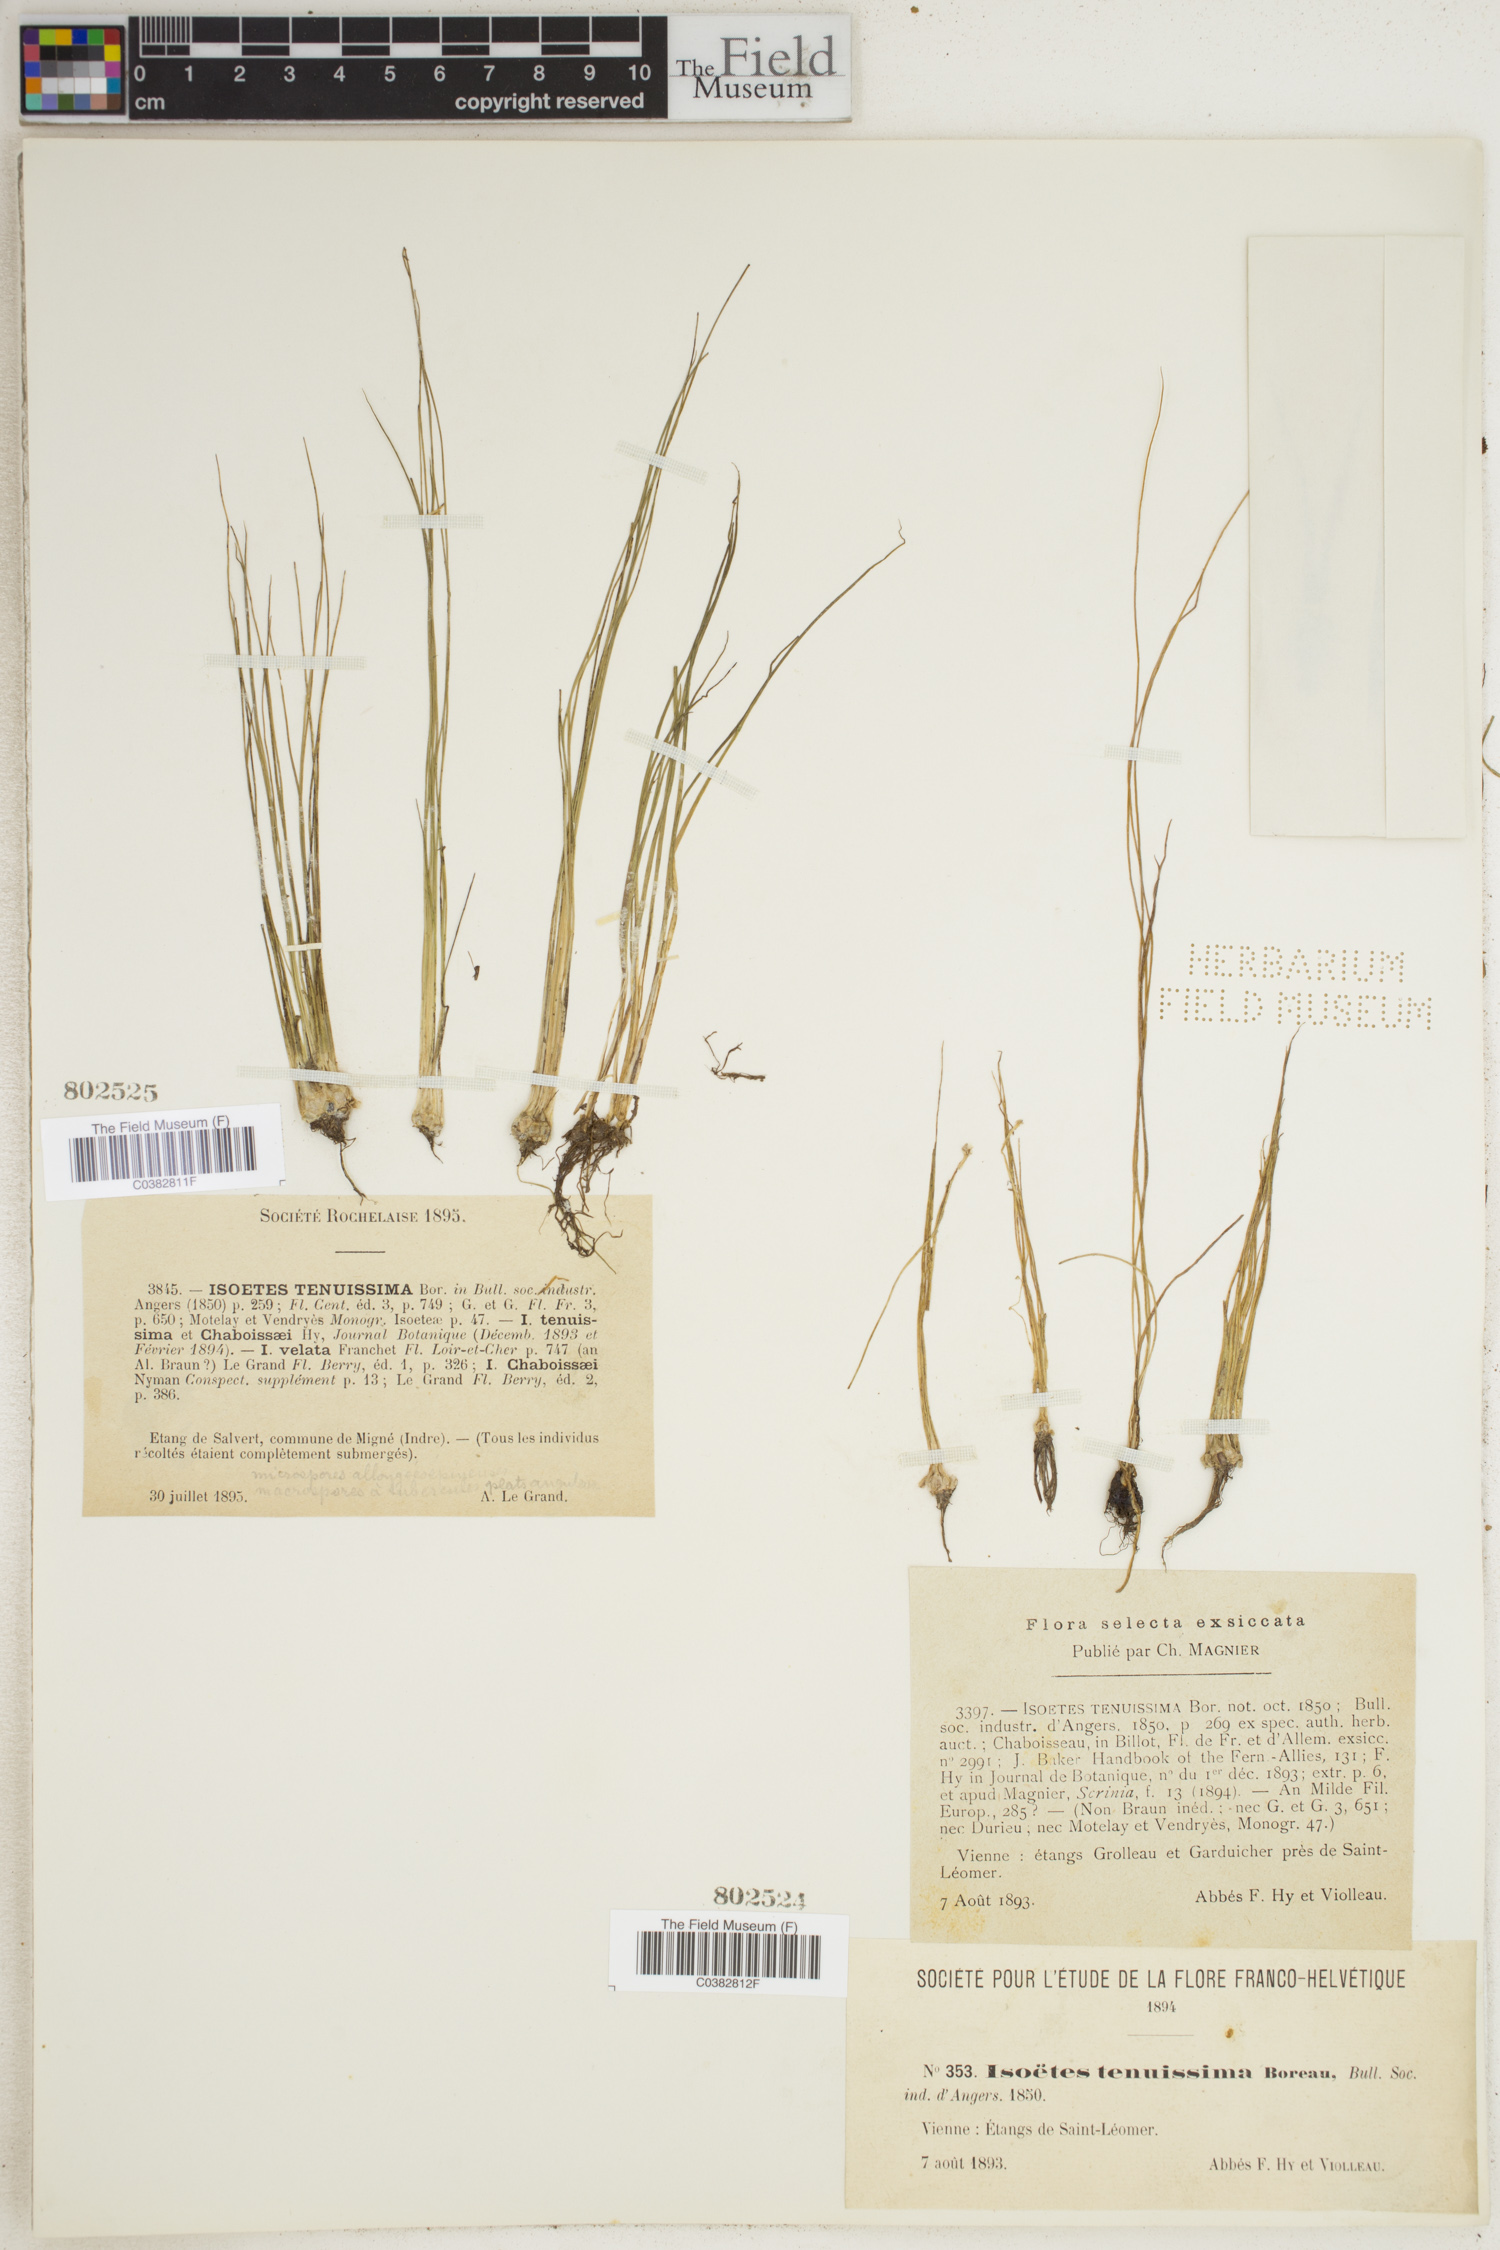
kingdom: Plantae
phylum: Tracheophyta
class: Lycopodiopsida
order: Isoetales
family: Isoetaceae
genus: Isoetes
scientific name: Isoetes
